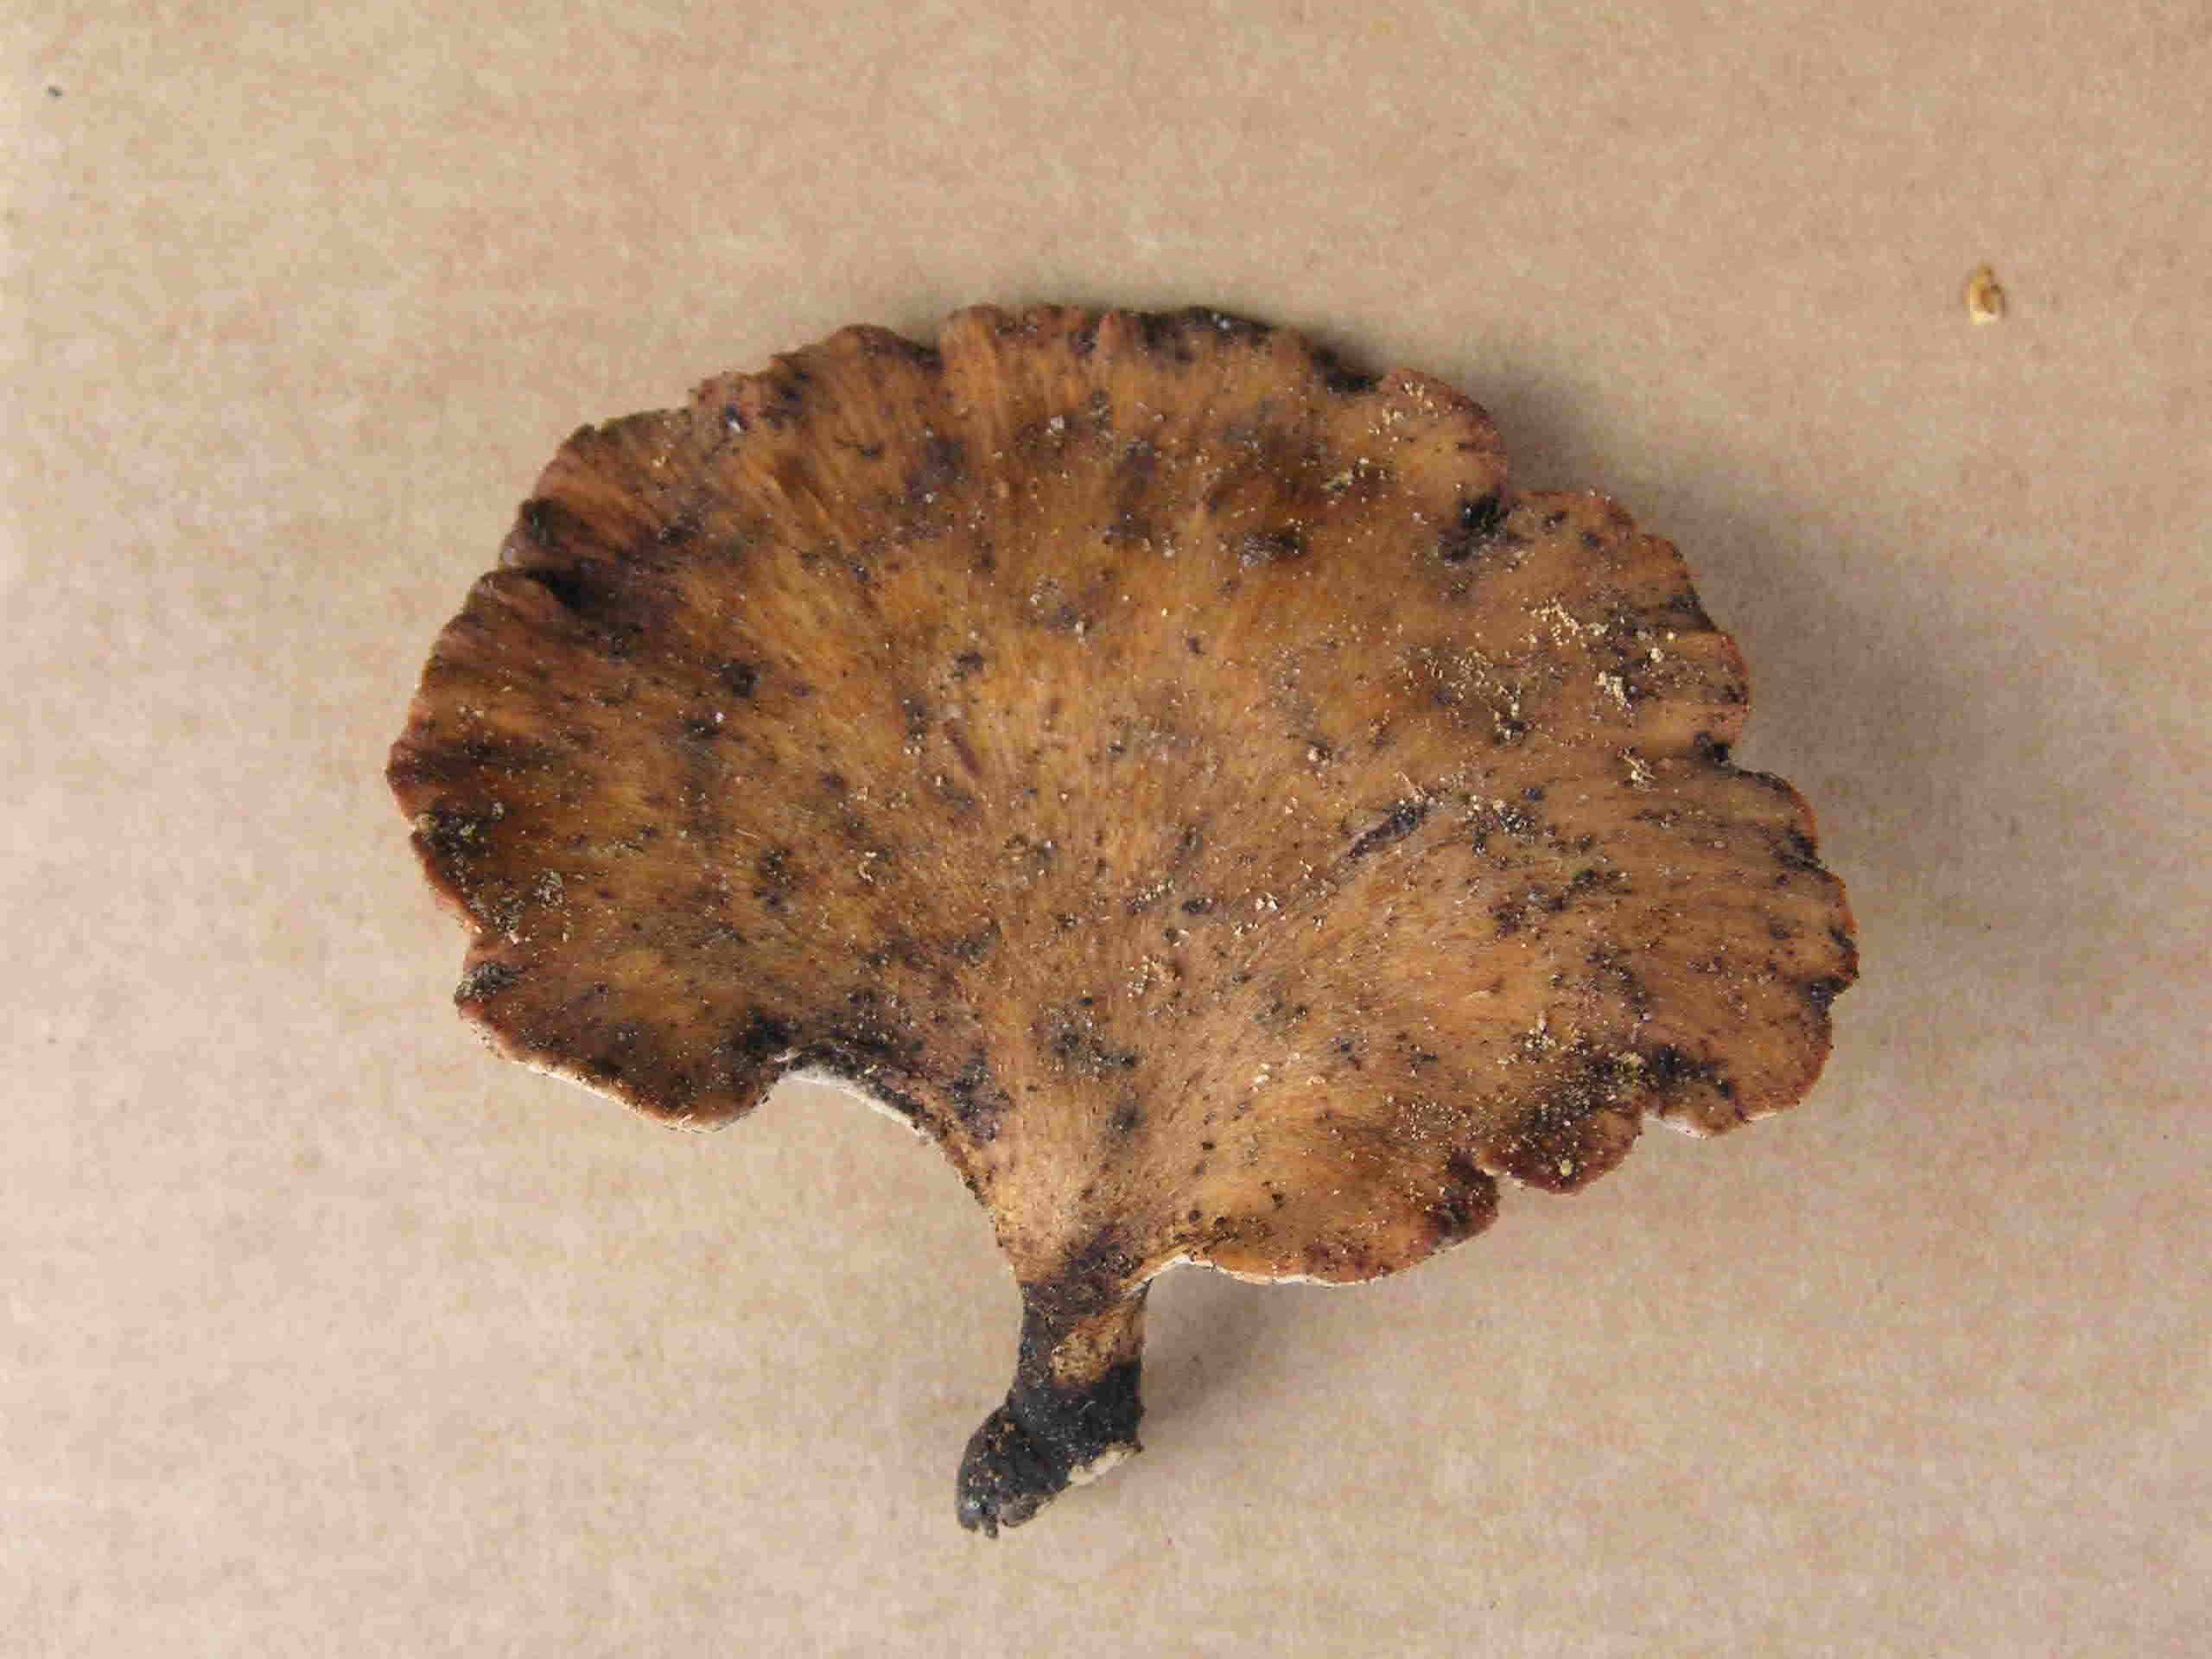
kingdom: Fungi
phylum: Basidiomycota
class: Agaricomycetes
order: Polyporales
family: Polyporaceae
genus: Cerioporus
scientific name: Cerioporus varius
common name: foranderlig stilkporesvamp
